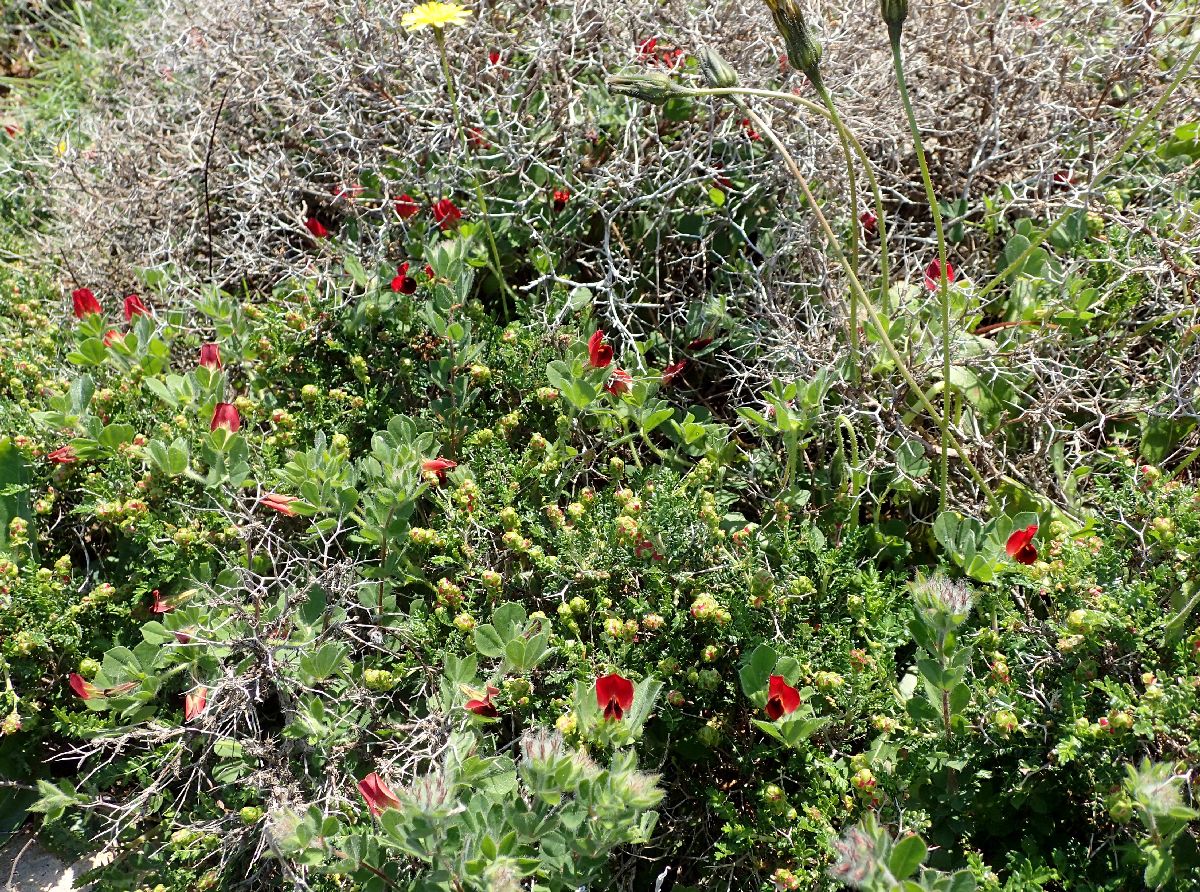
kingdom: Plantae
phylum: Tracheophyta
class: Magnoliopsida
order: Fabales
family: Fabaceae
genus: Lotus
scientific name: Lotus tetragonolobus
